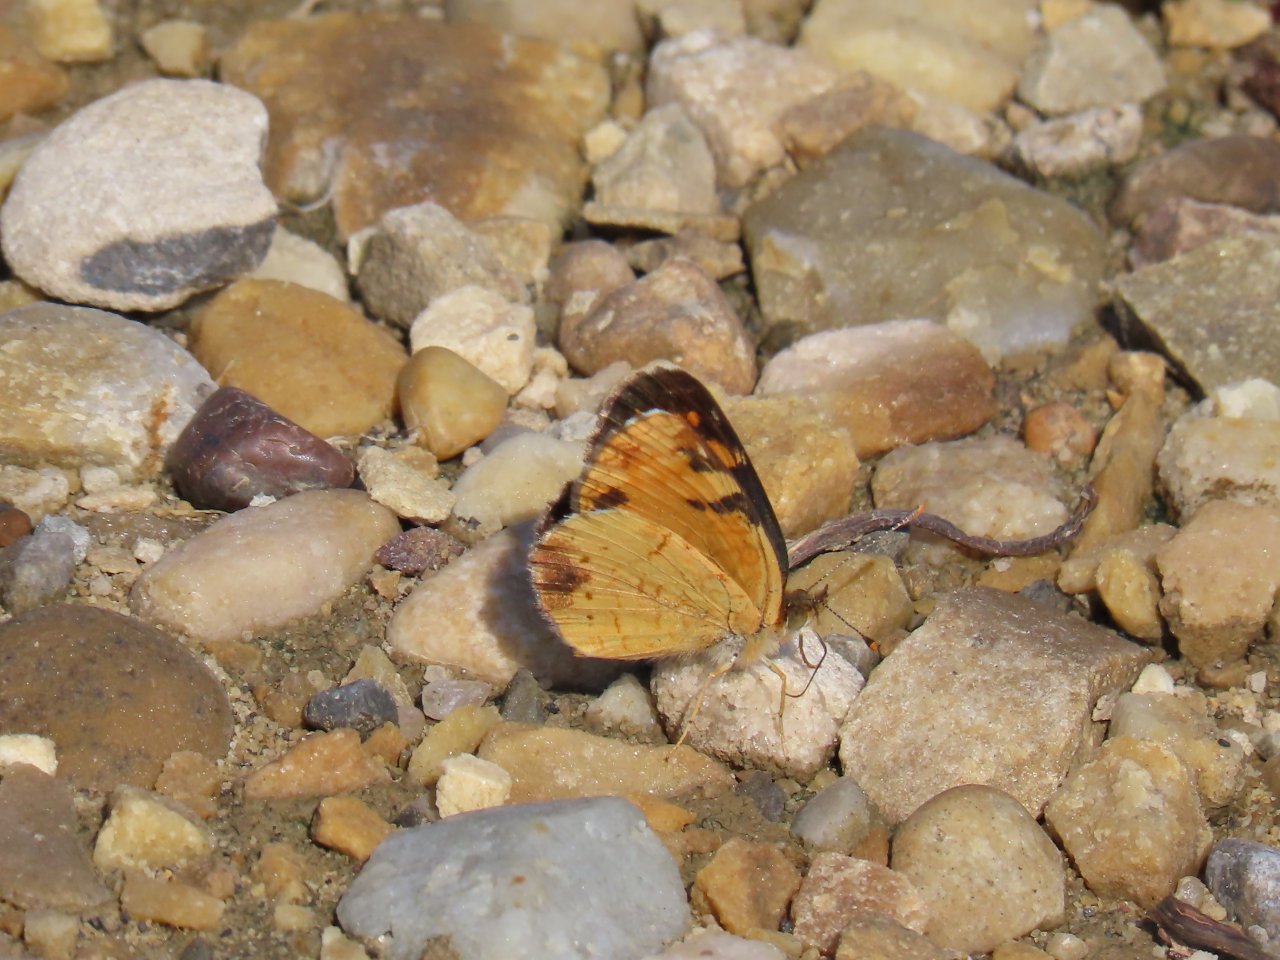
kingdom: Animalia
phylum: Arthropoda
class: Insecta
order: Lepidoptera
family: Nymphalidae
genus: Phyciodes
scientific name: Phyciodes tharos
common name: Northern Crescent
